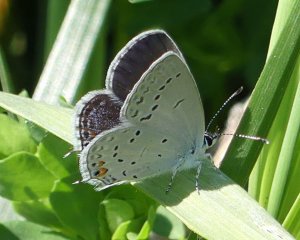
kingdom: Animalia
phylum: Arthropoda
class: Insecta
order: Lepidoptera
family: Lycaenidae
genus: Elkalyce
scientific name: Elkalyce comyntas
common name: Eastern Tailed-Blue
